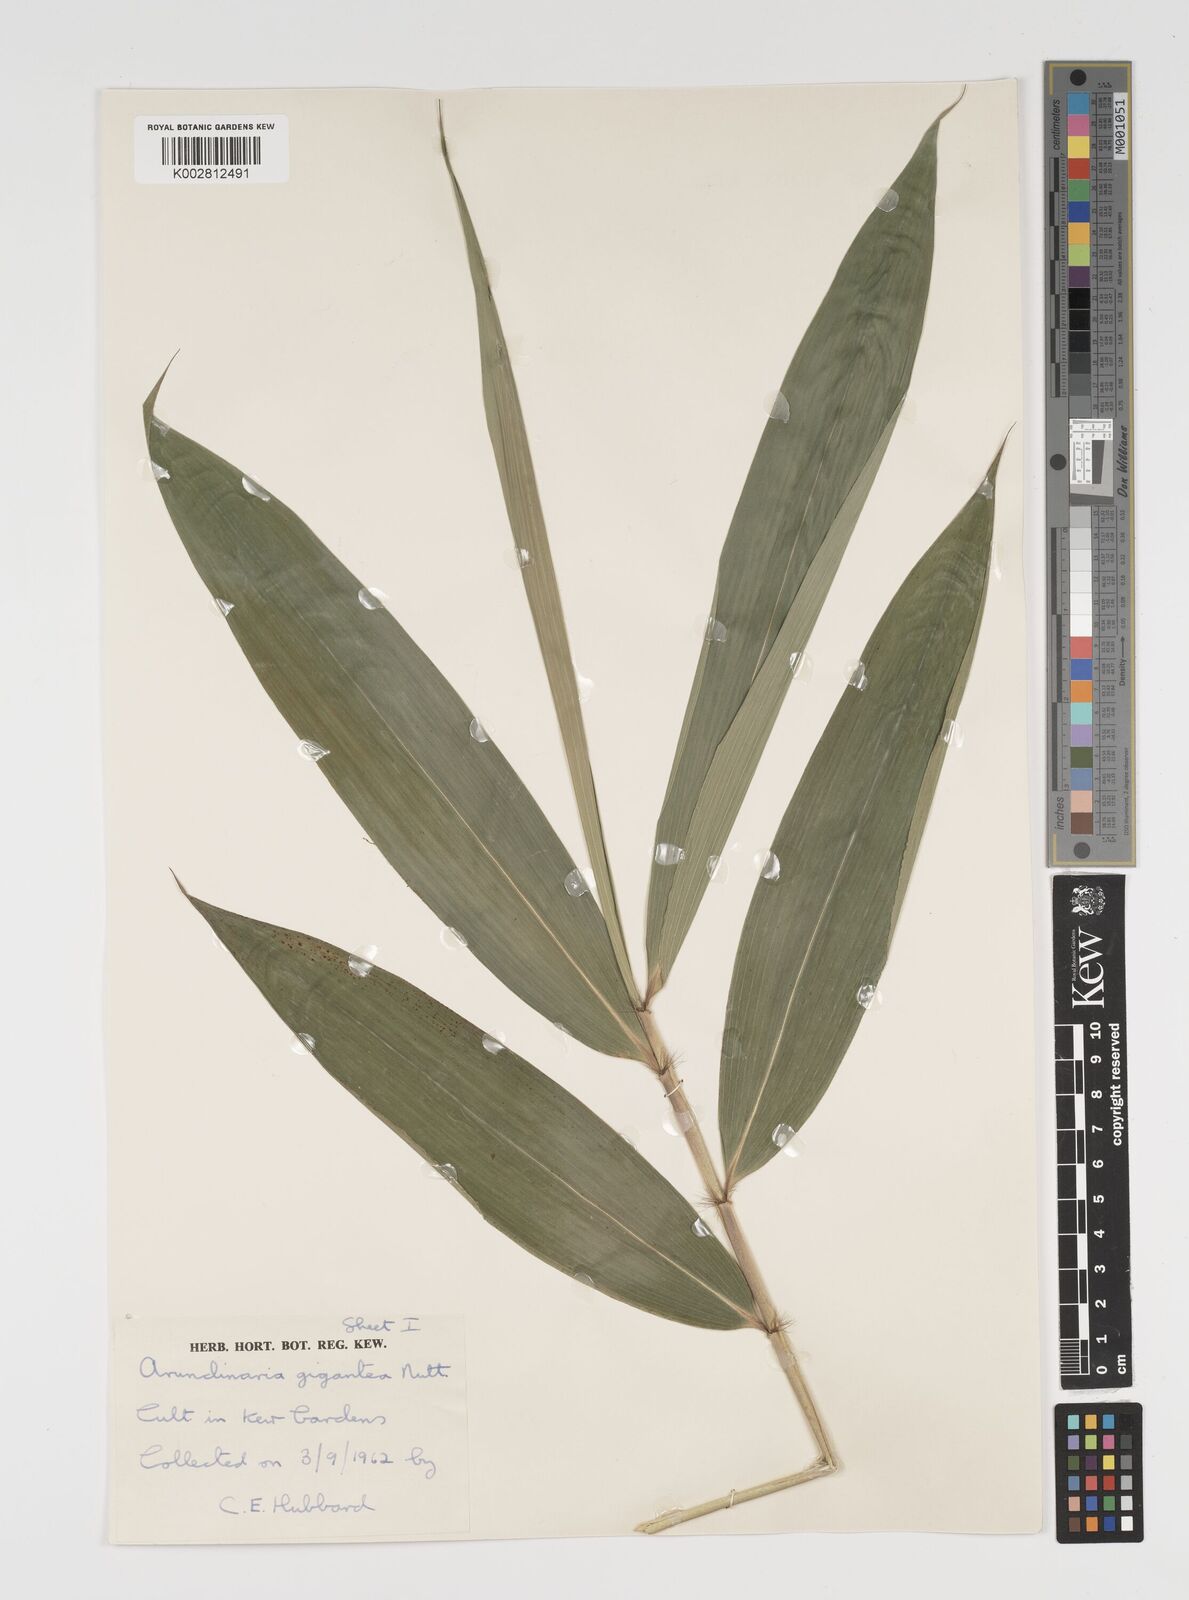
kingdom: Plantae
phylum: Tracheophyta
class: Liliopsida
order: Poales
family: Poaceae
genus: Pseudosasa
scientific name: Pseudosasa amabilis
